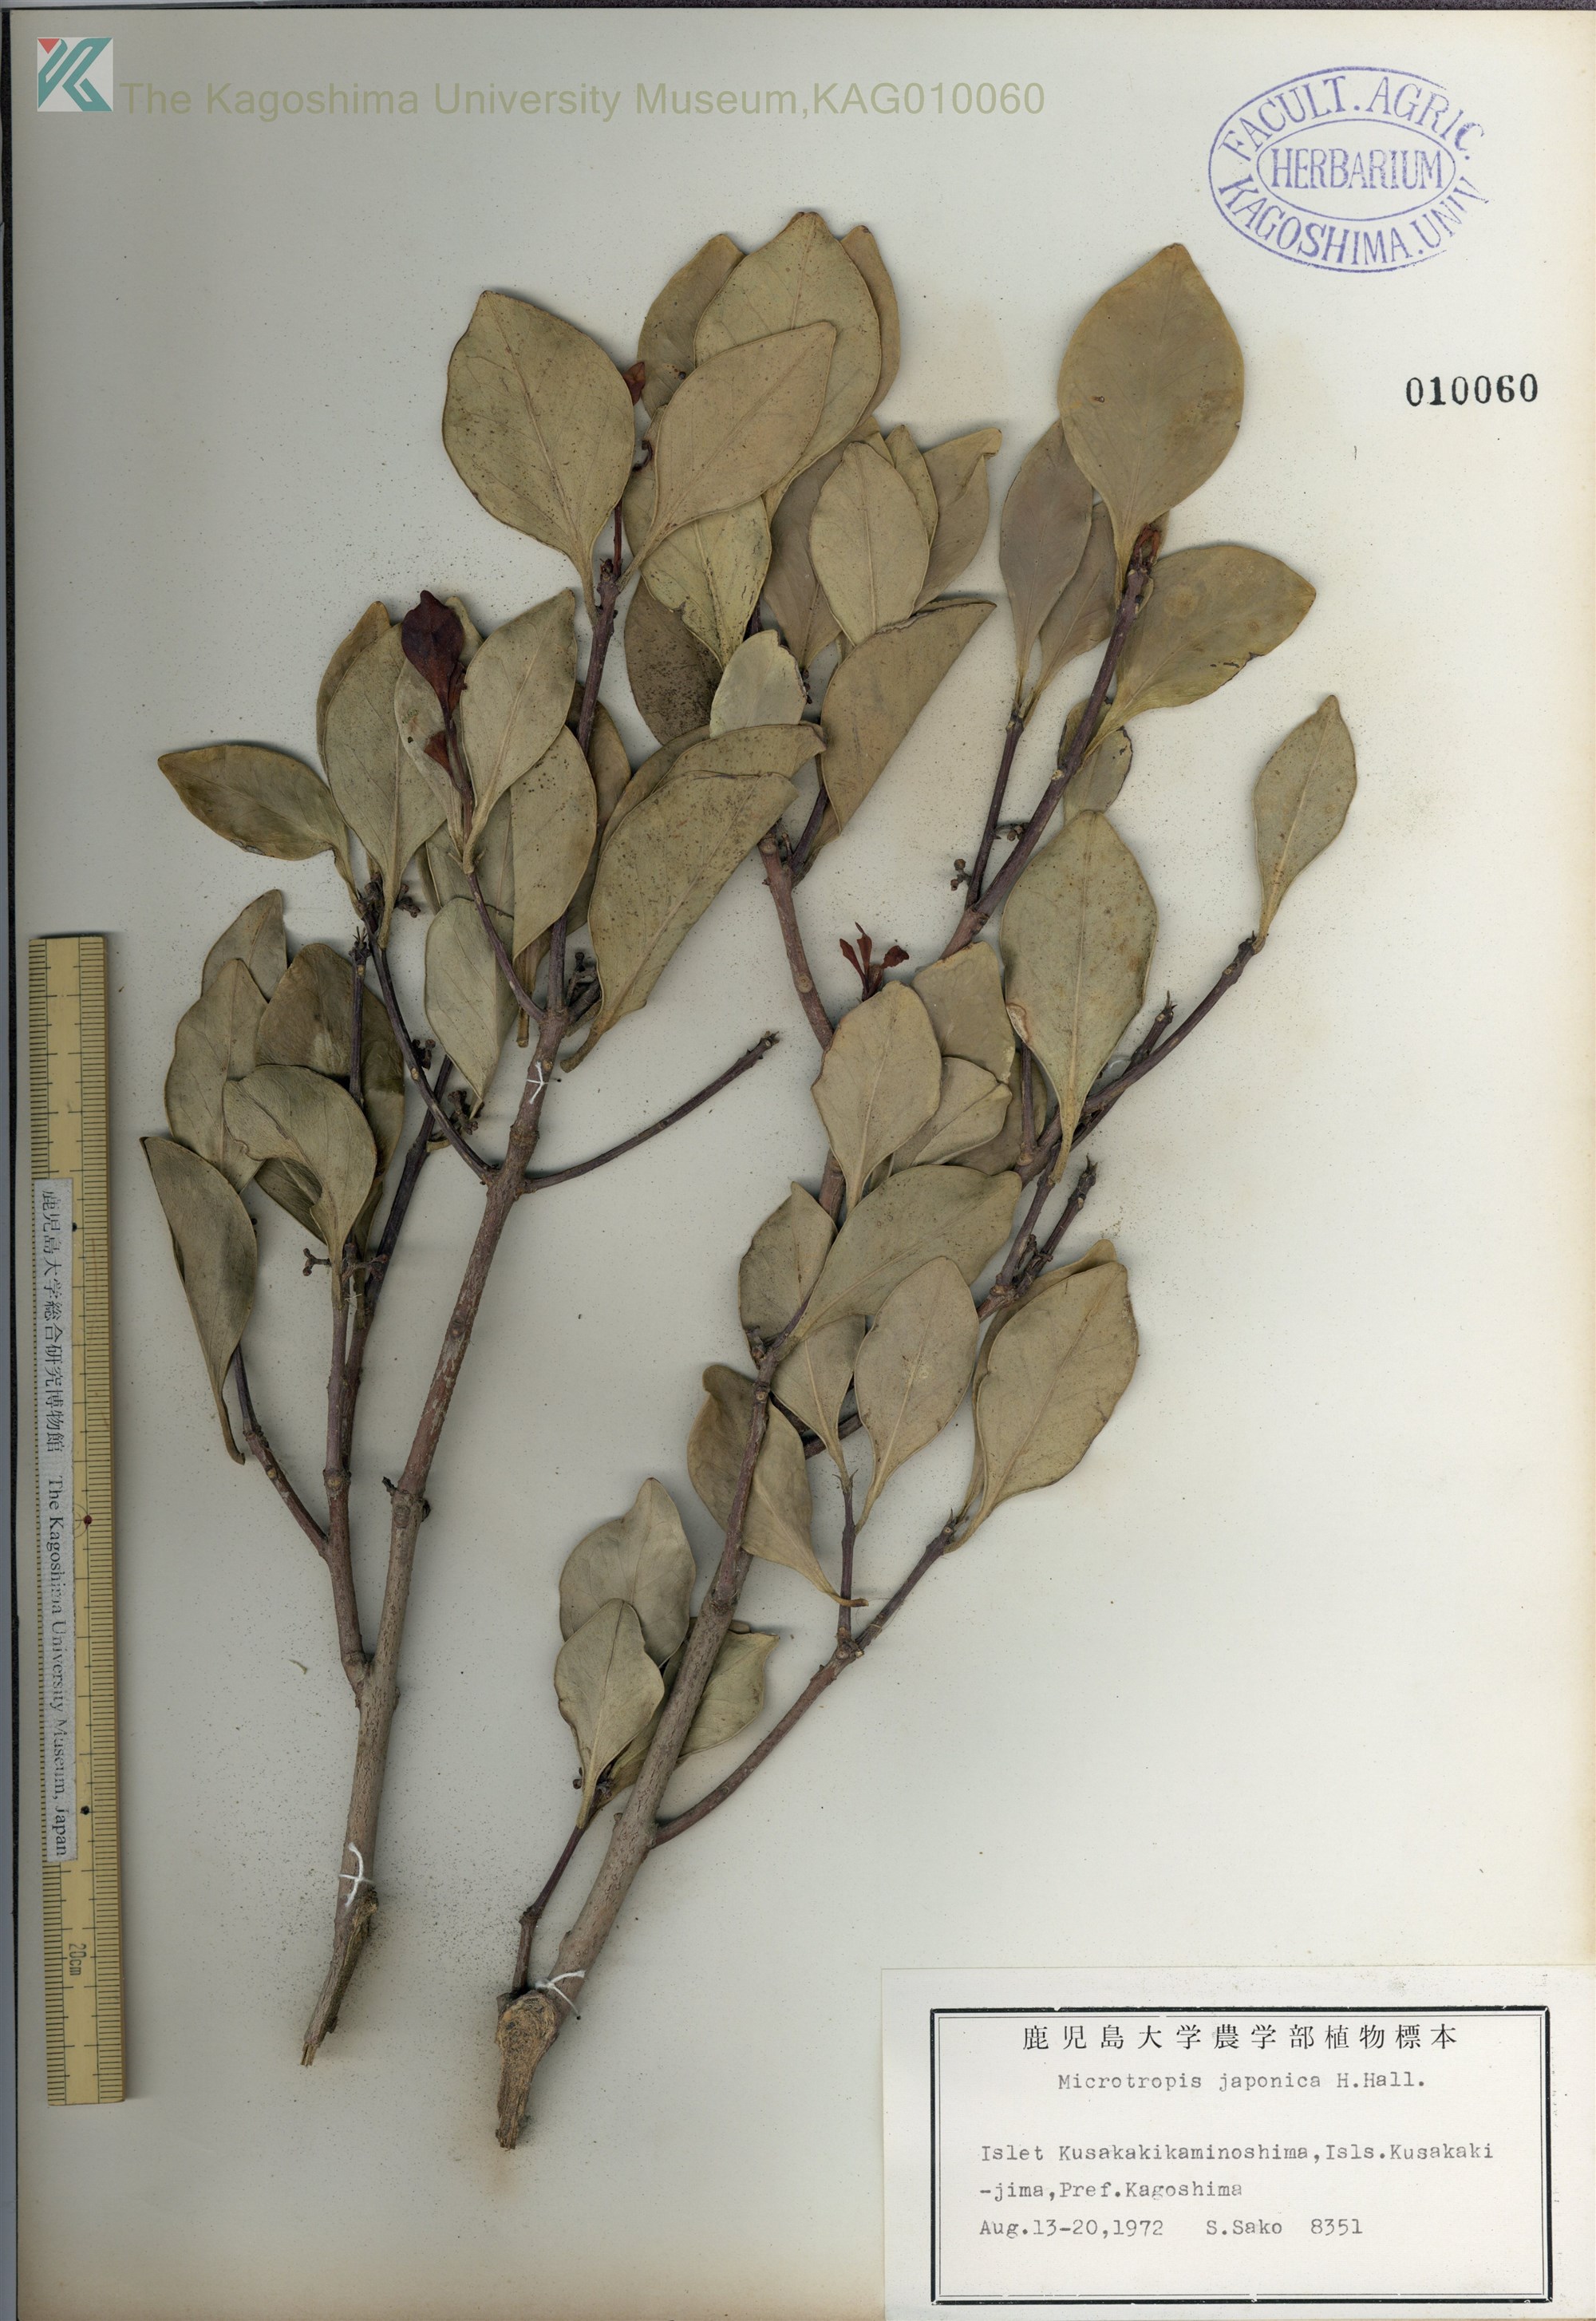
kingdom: Plantae
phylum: Tracheophyta
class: Magnoliopsida
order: Celastrales
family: Celastraceae
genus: Microtropis
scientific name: Microtropis japonica
